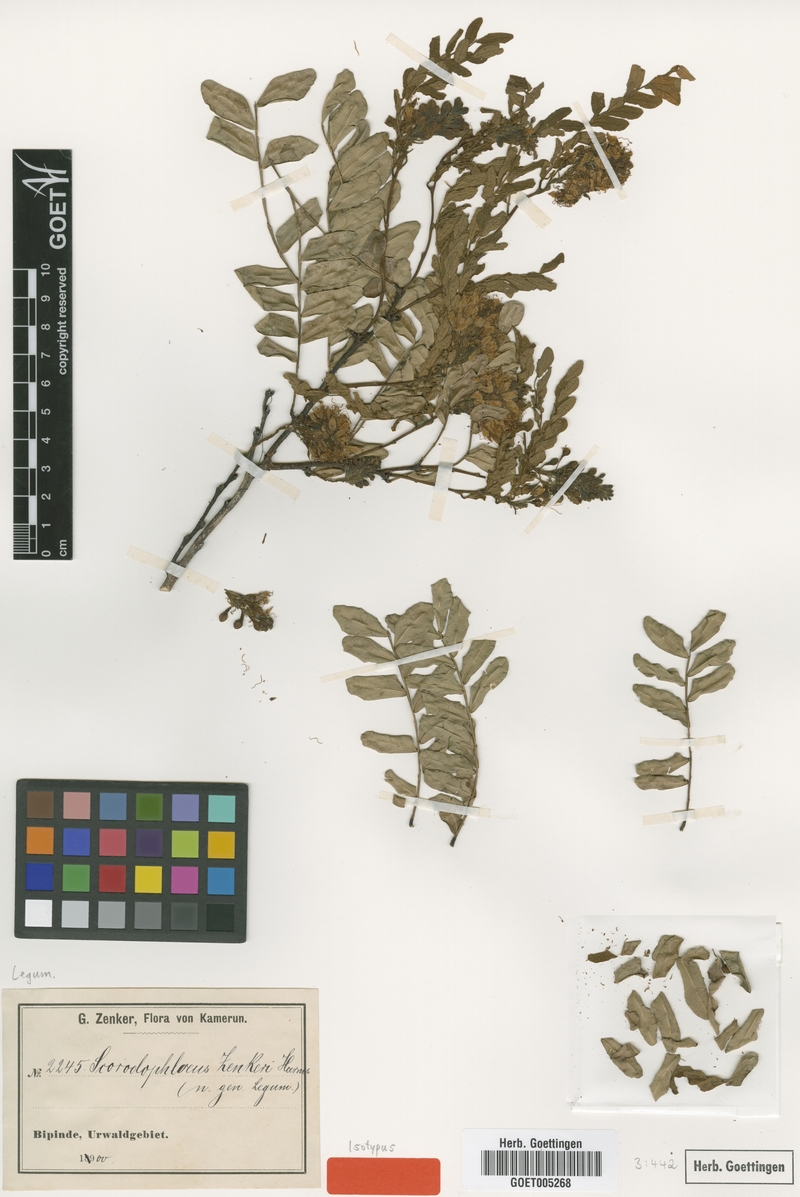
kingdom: Plantae
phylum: Tracheophyta
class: Magnoliopsida
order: Fabales
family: Fabaceae
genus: Scorodophloeus
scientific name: Scorodophloeus zenkeri
